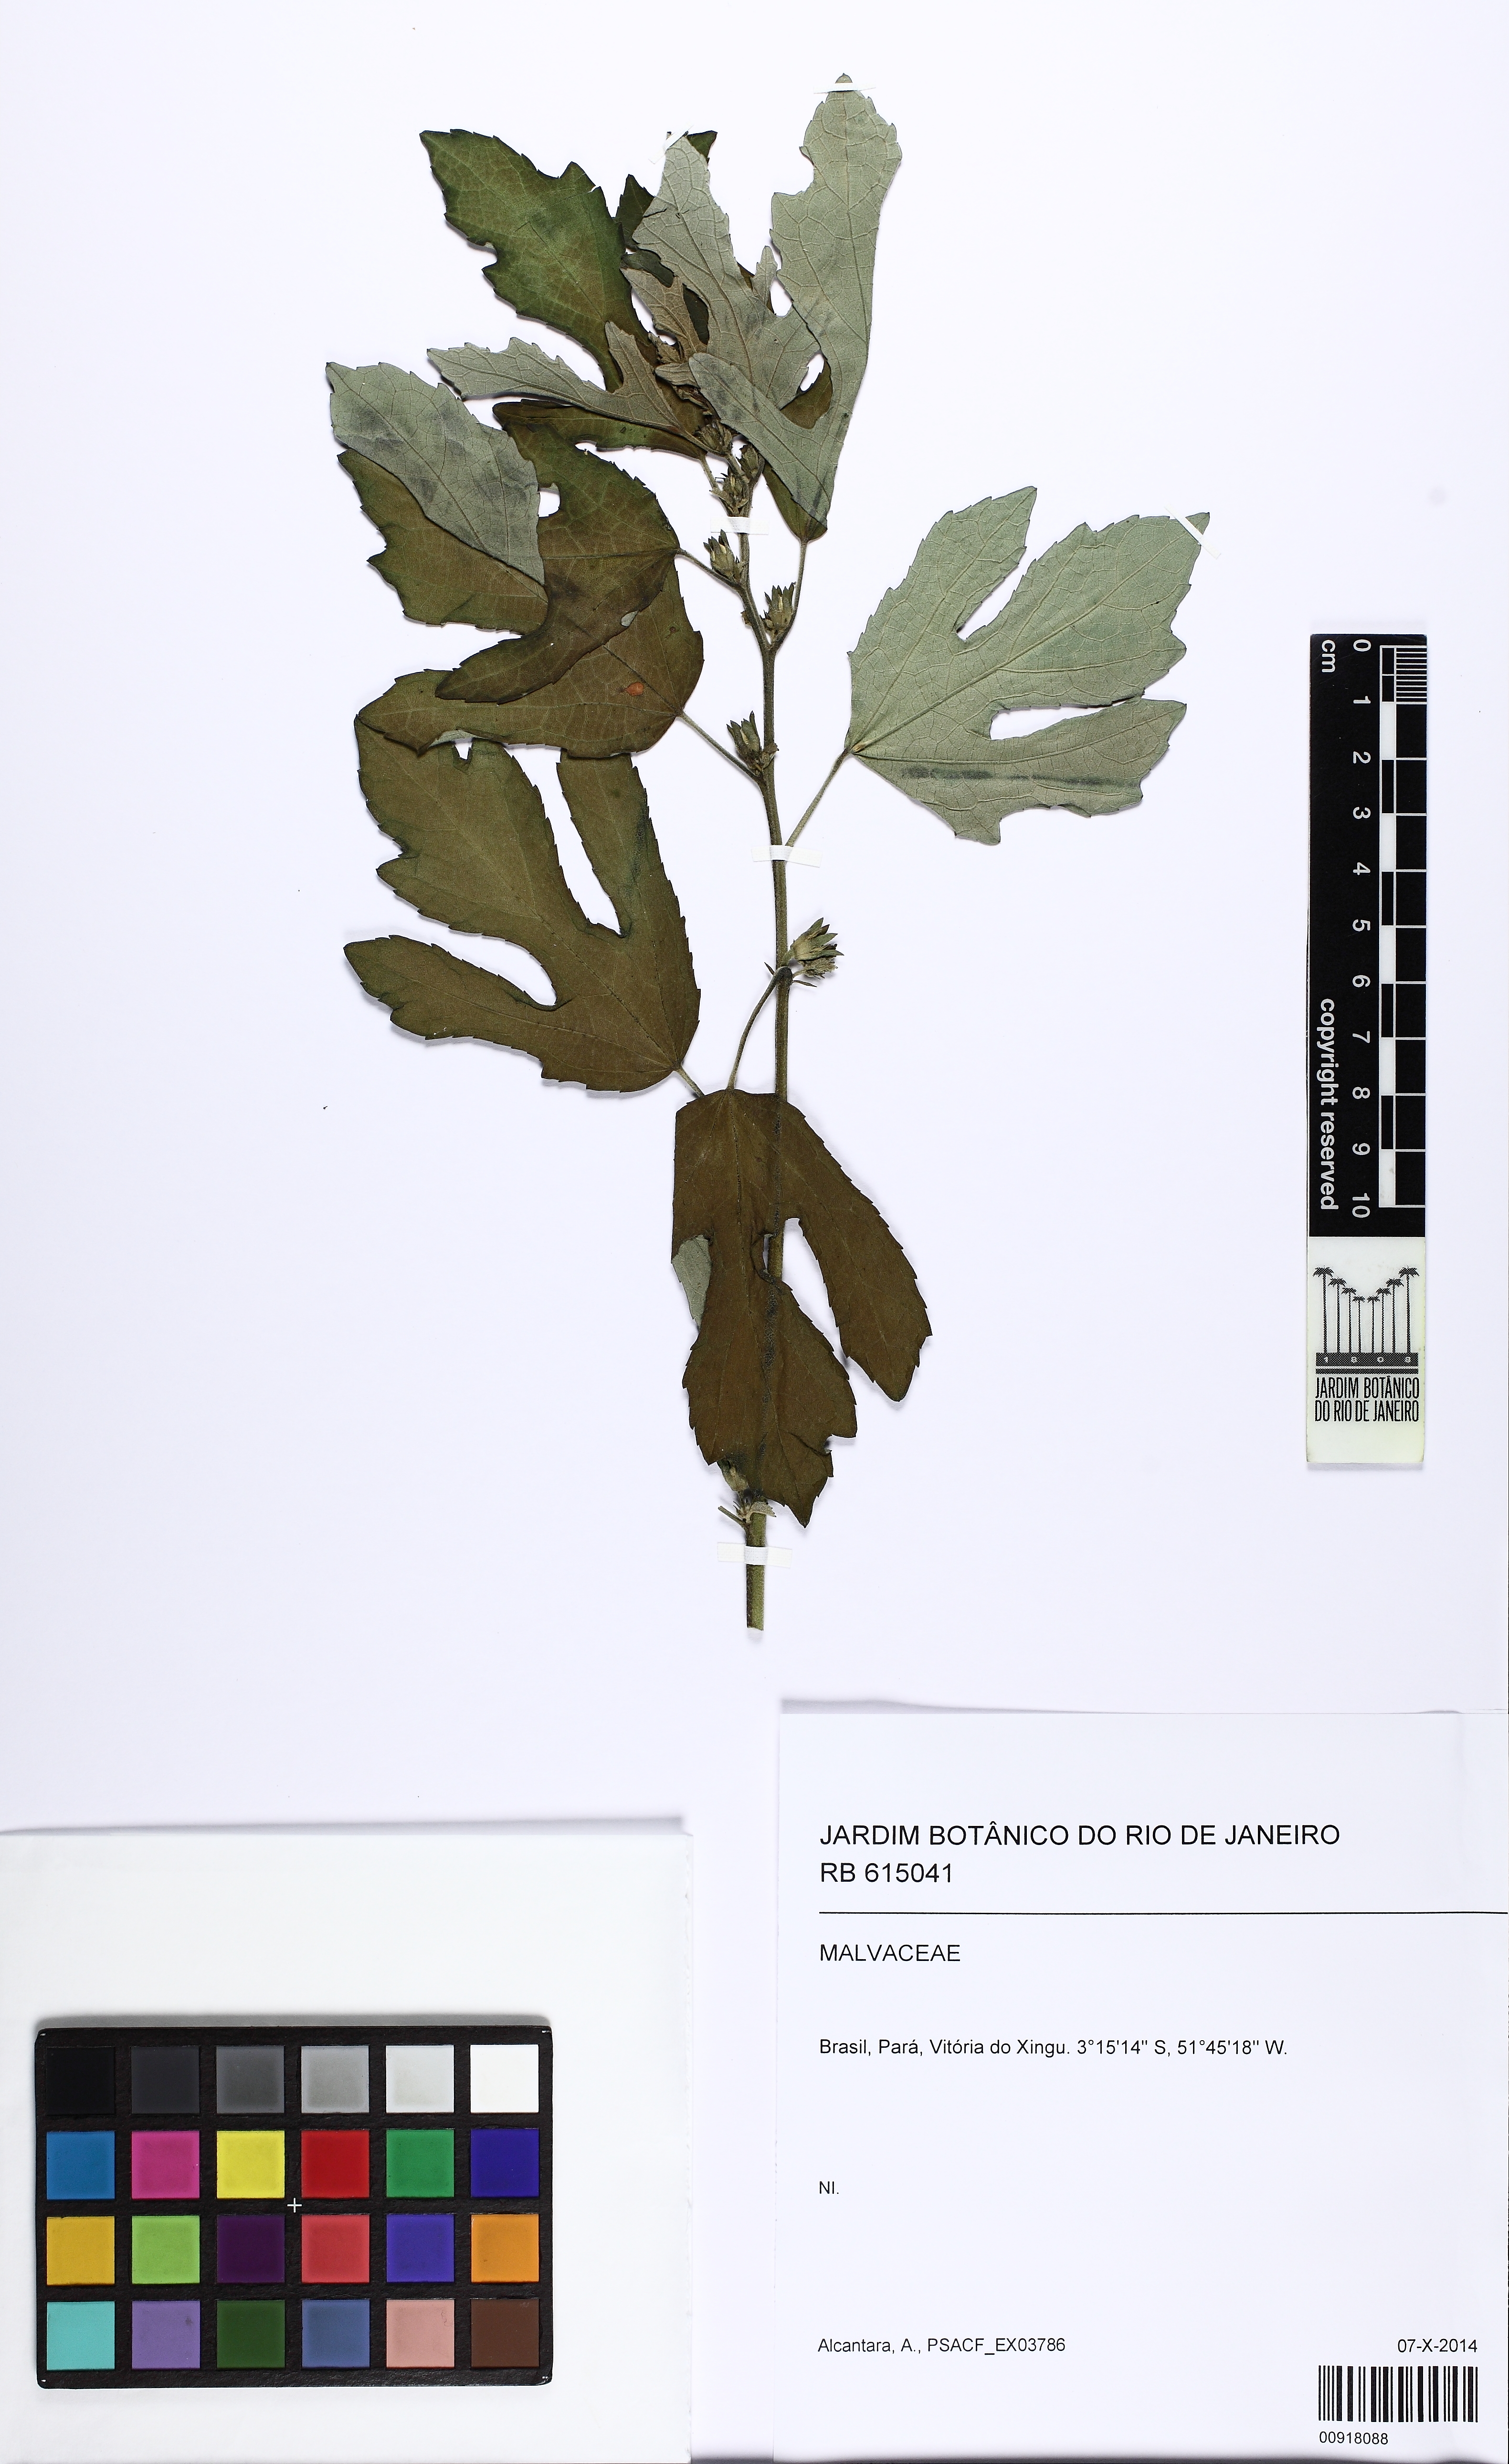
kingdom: Plantae
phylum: Tracheophyta
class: Magnoliopsida
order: Malvales
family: Malvaceae
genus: Urena
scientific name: Urena lobata
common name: Caesarweed
